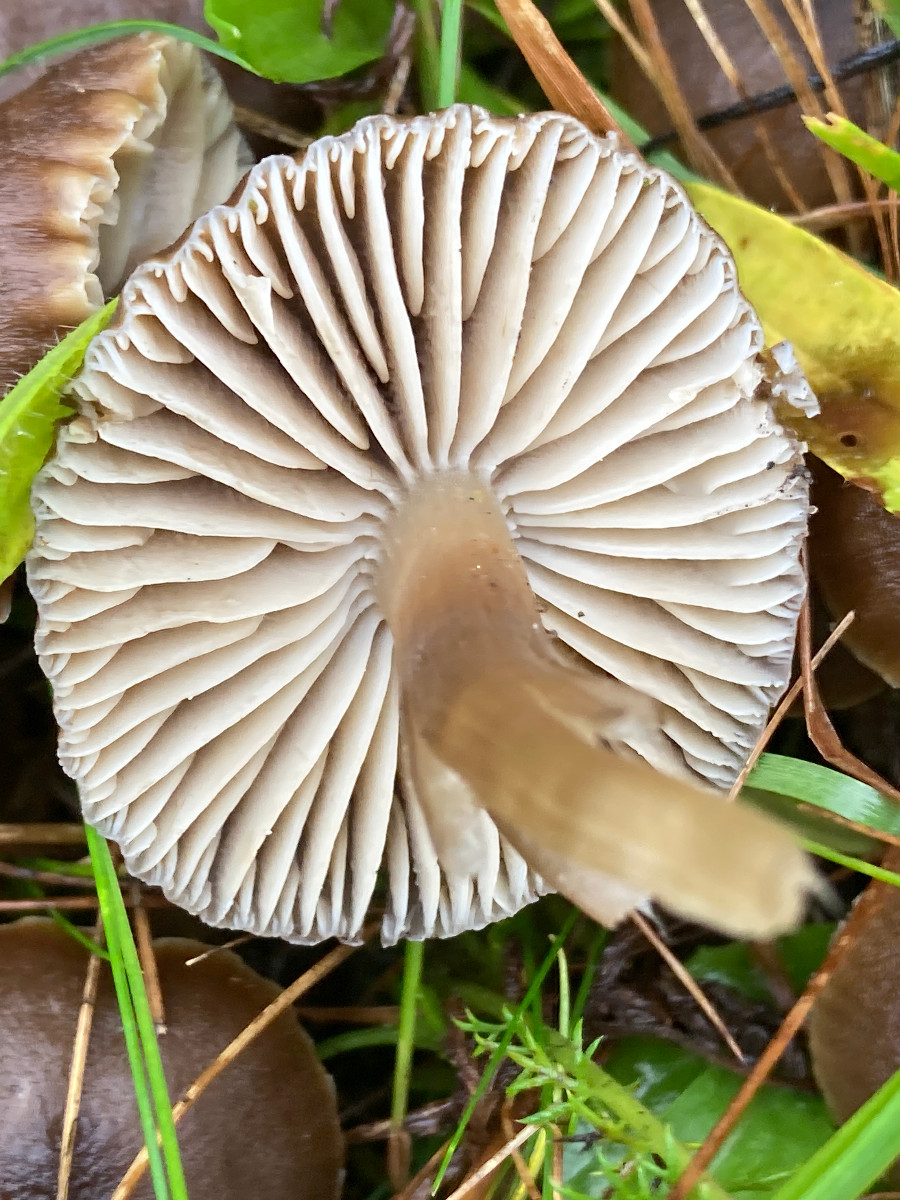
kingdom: Fungi
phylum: Basidiomycota
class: Agaricomycetes
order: Agaricales
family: Hygrophoraceae
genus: Neohygrocybe
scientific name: Neohygrocybe nitrata
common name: stinkende vokshat
